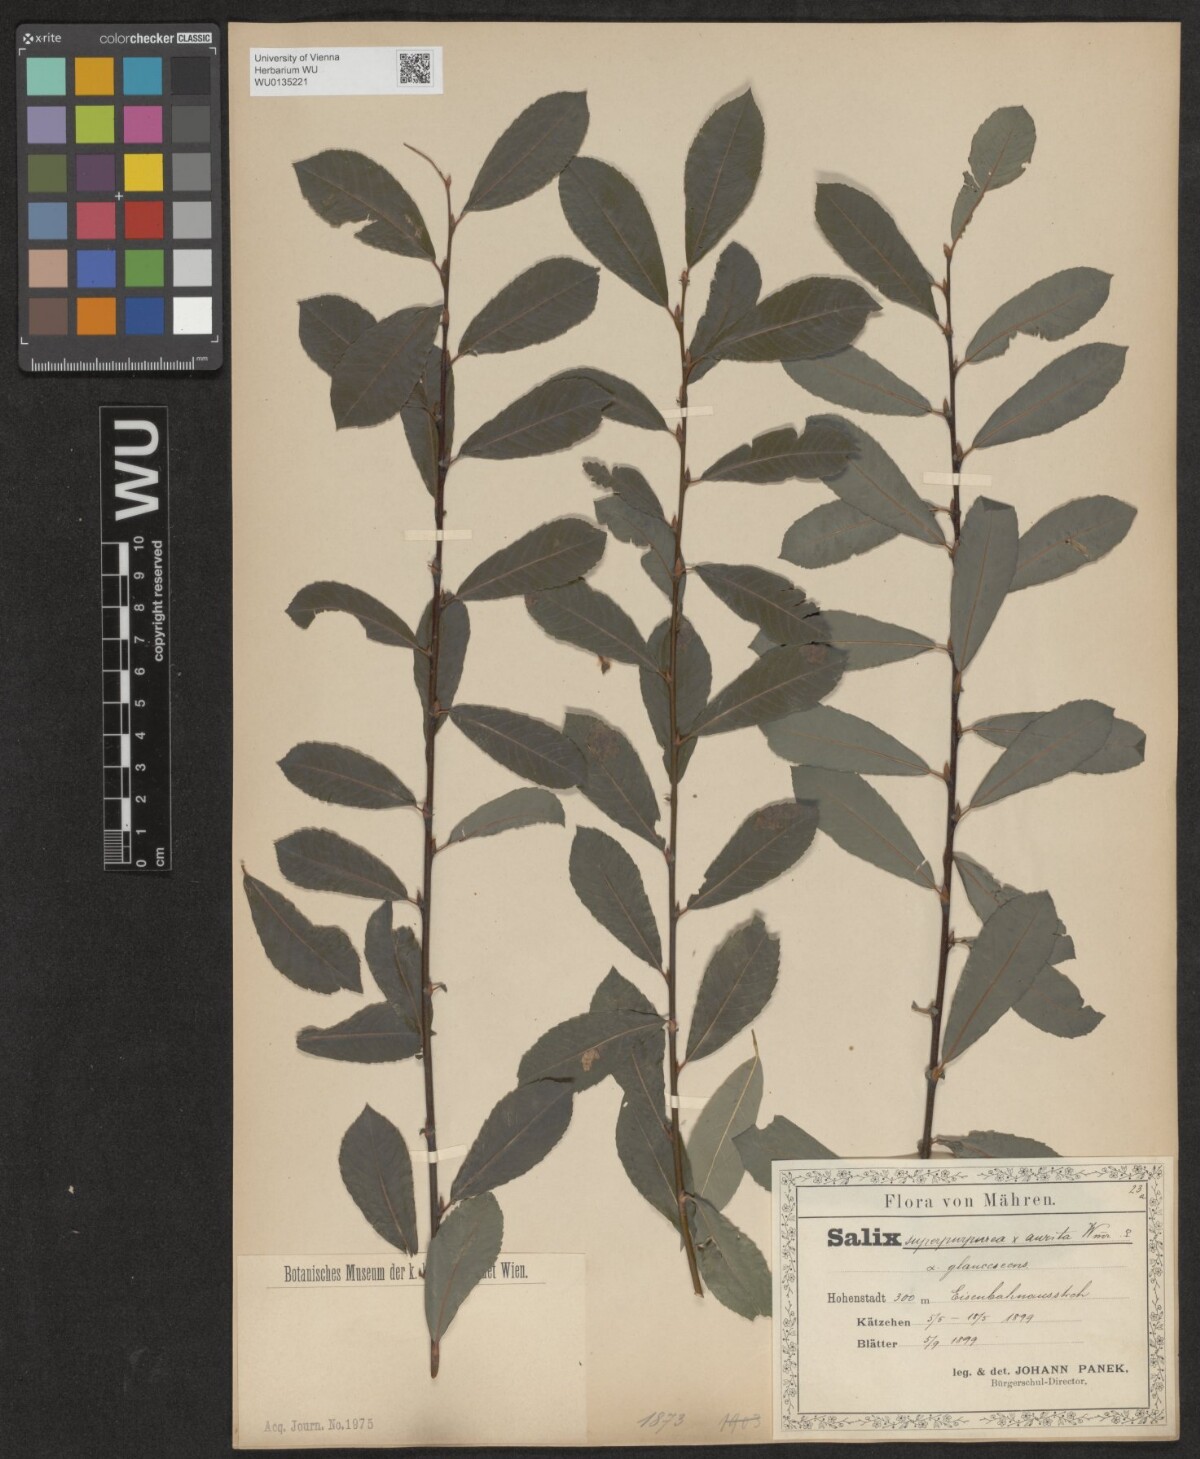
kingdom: Plantae
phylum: Tracheophyta
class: Magnoliopsida
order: Malpighiales
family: Salicaceae
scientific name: Salicaceae
